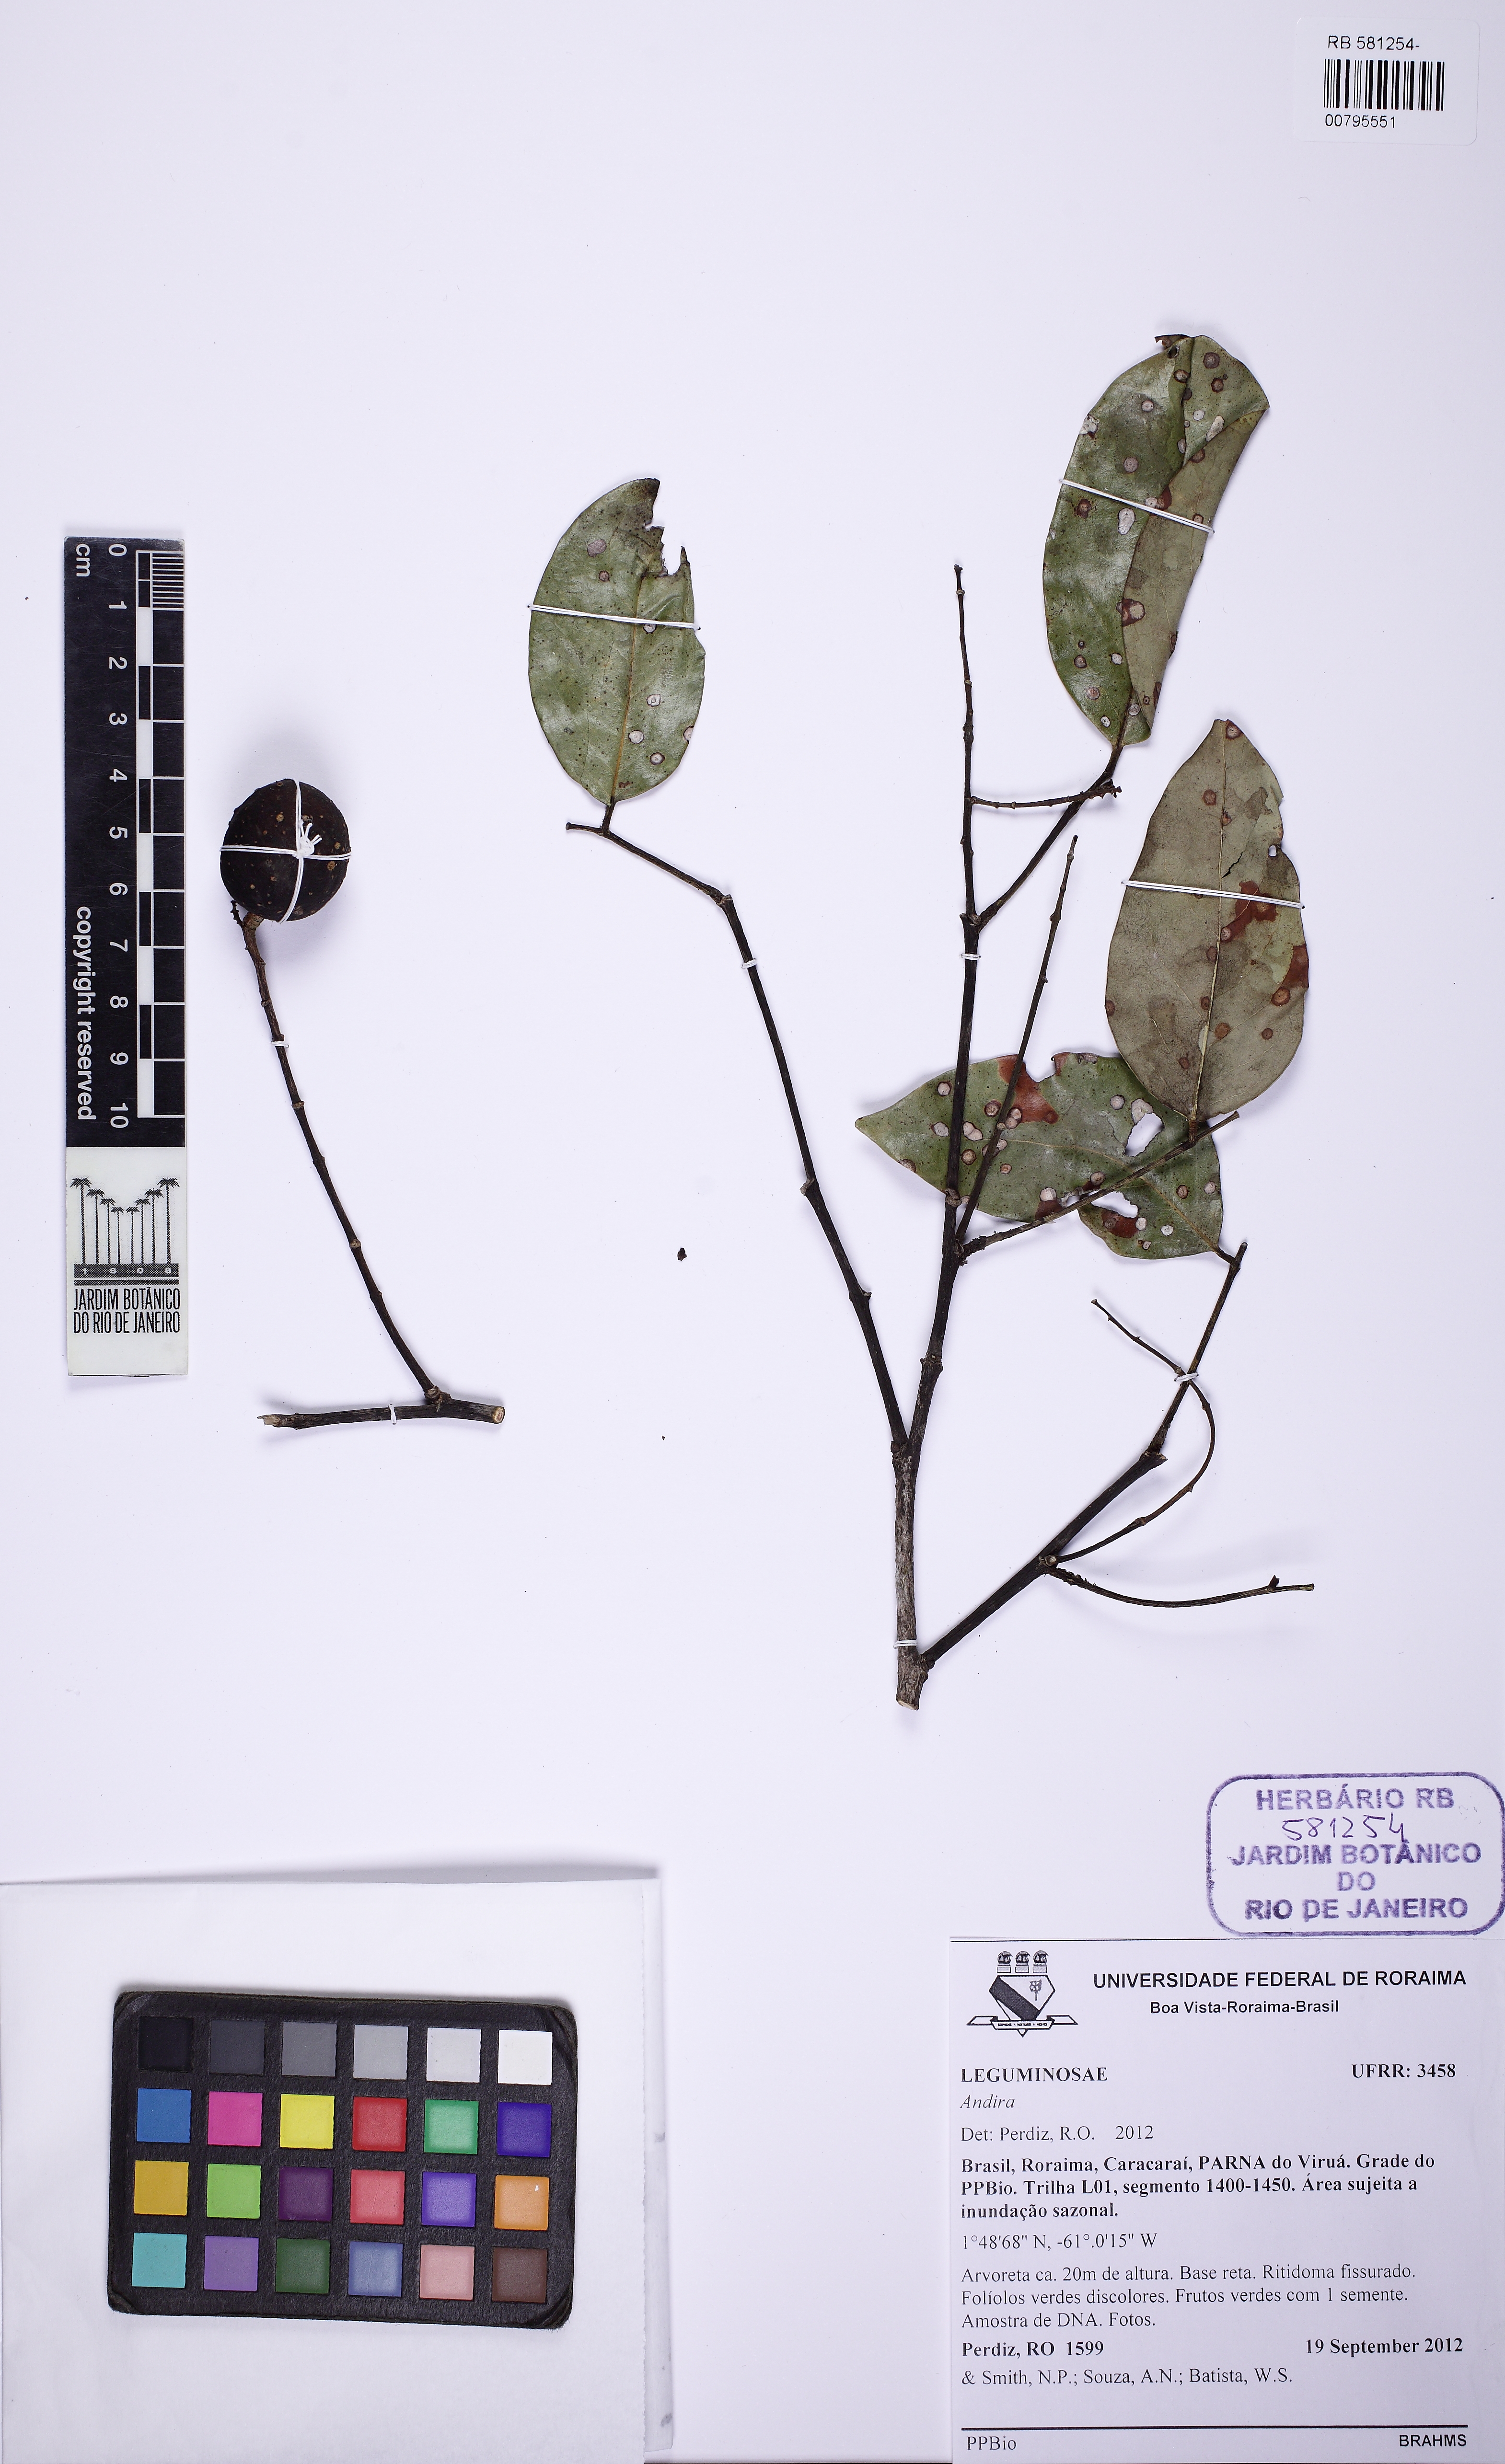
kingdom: Plantae
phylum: Tracheophyta
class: Magnoliopsida
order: Fabales
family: Fabaceae
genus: Andira
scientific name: Andira
